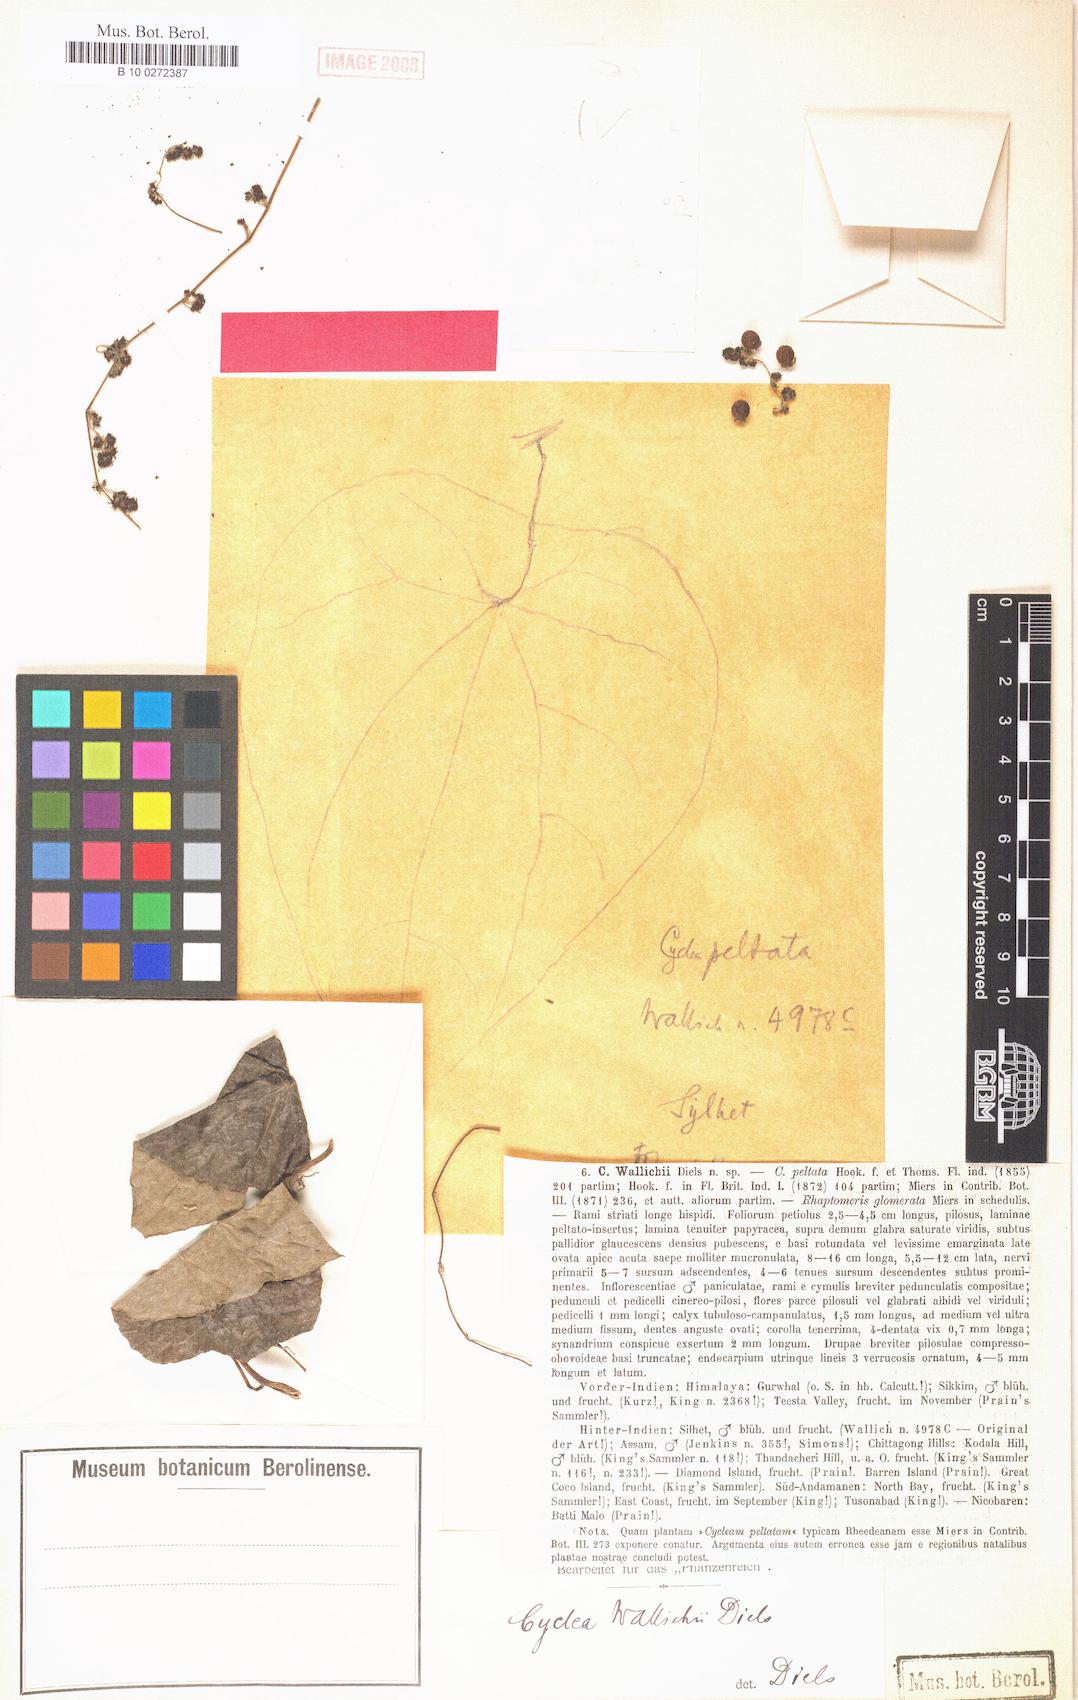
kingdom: Plantae
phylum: Tracheophyta
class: Magnoliopsida
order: Ranunculales
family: Menispermaceae
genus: Cyclea
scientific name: Cyclea barbata
